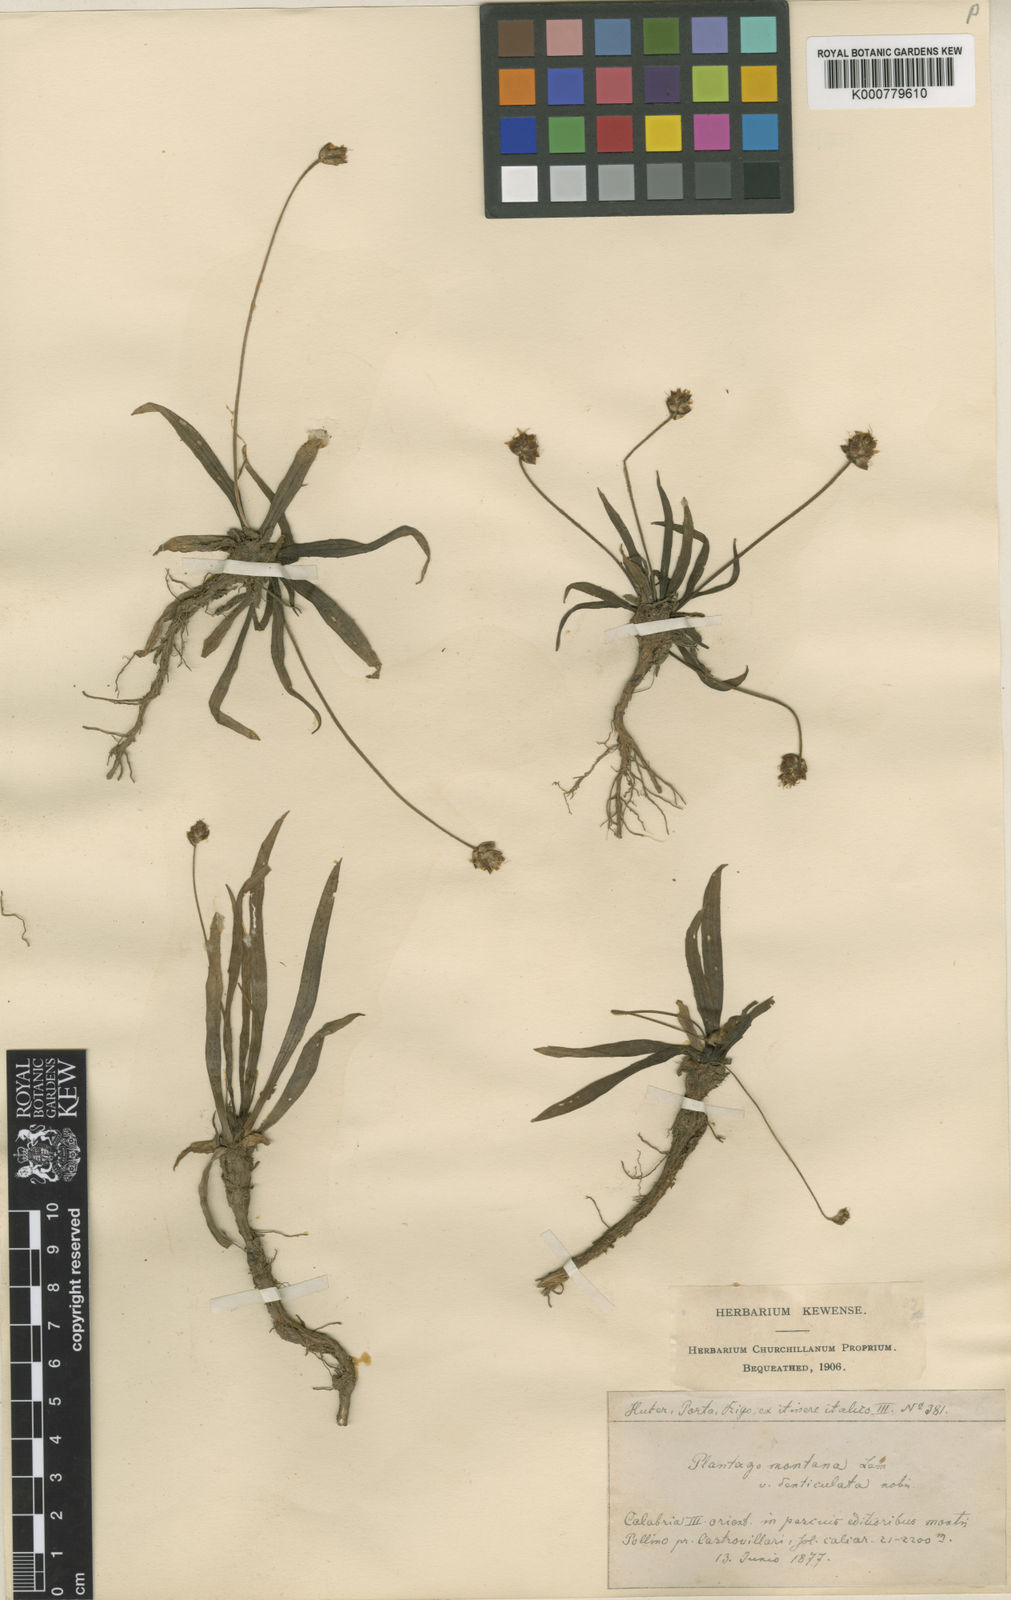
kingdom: Plantae
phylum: Tracheophyta
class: Magnoliopsida
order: Lamiales
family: Plantaginaceae
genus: Plantago
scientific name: Plantago atrata
